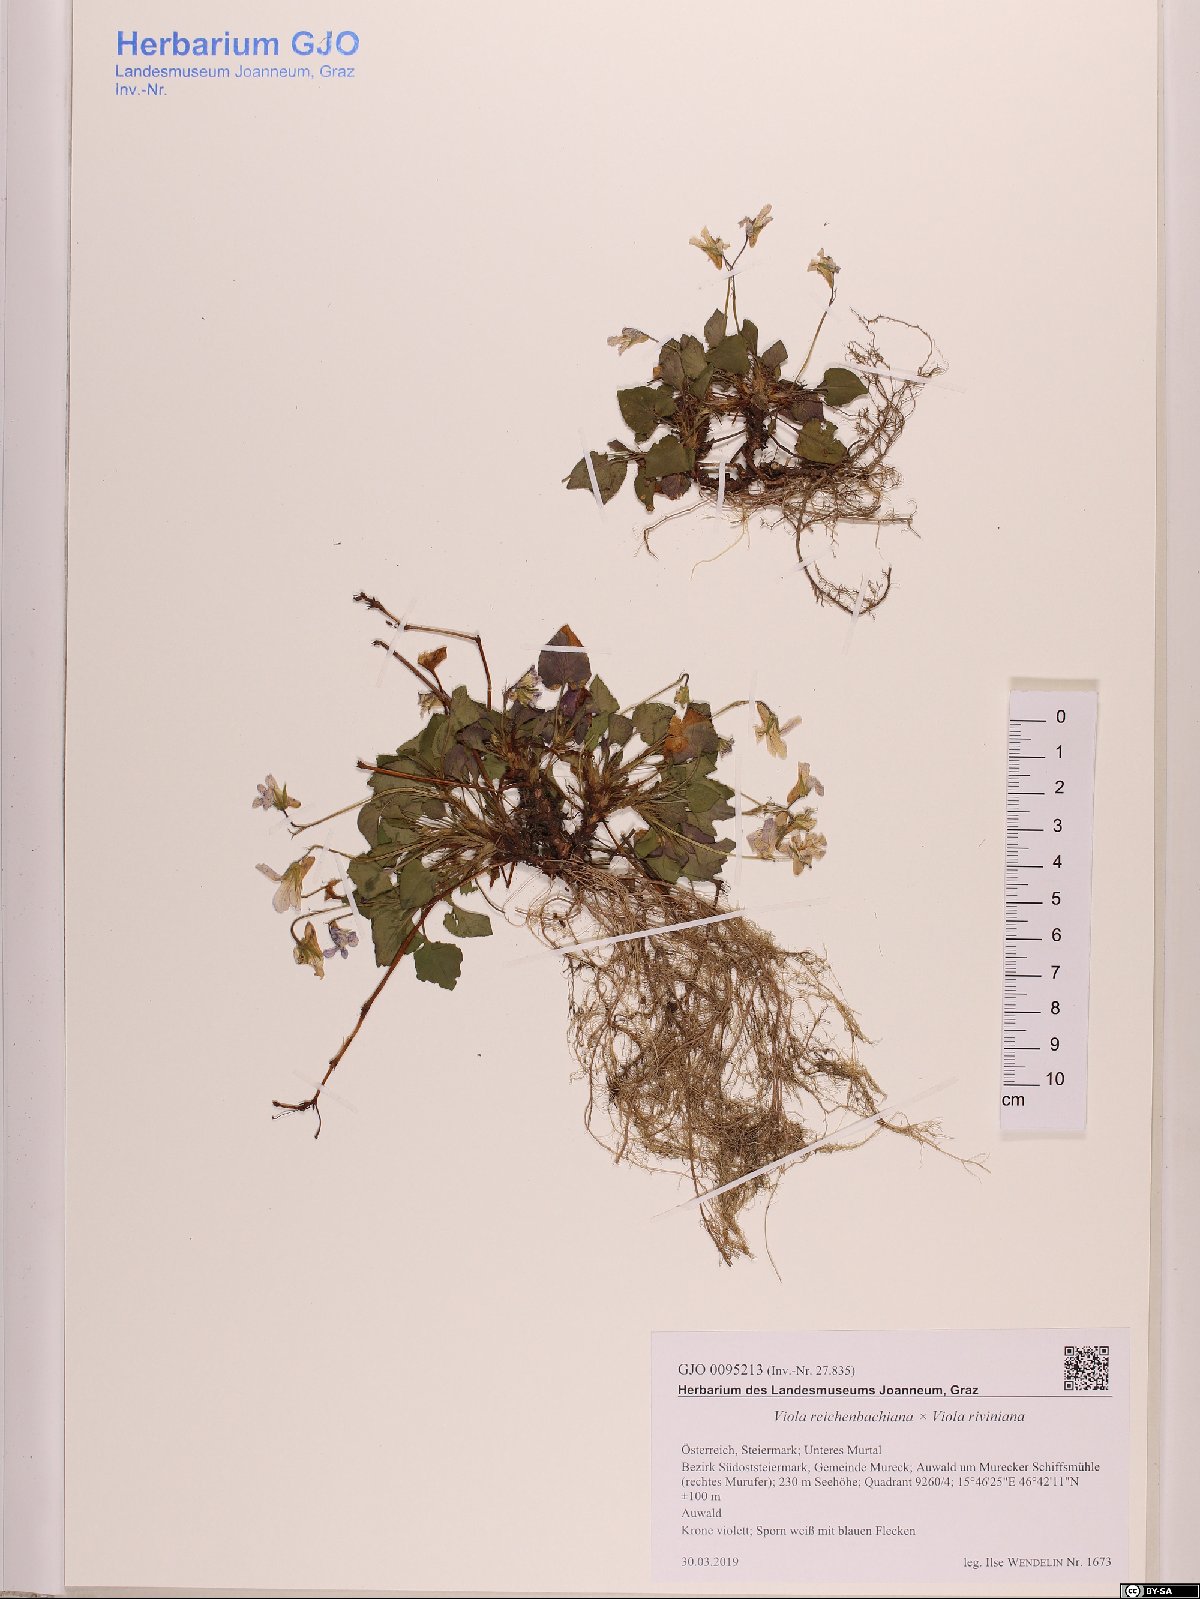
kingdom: Plantae
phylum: Tracheophyta
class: Magnoliopsida
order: Malpighiales
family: Violaceae
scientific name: Violaceae
